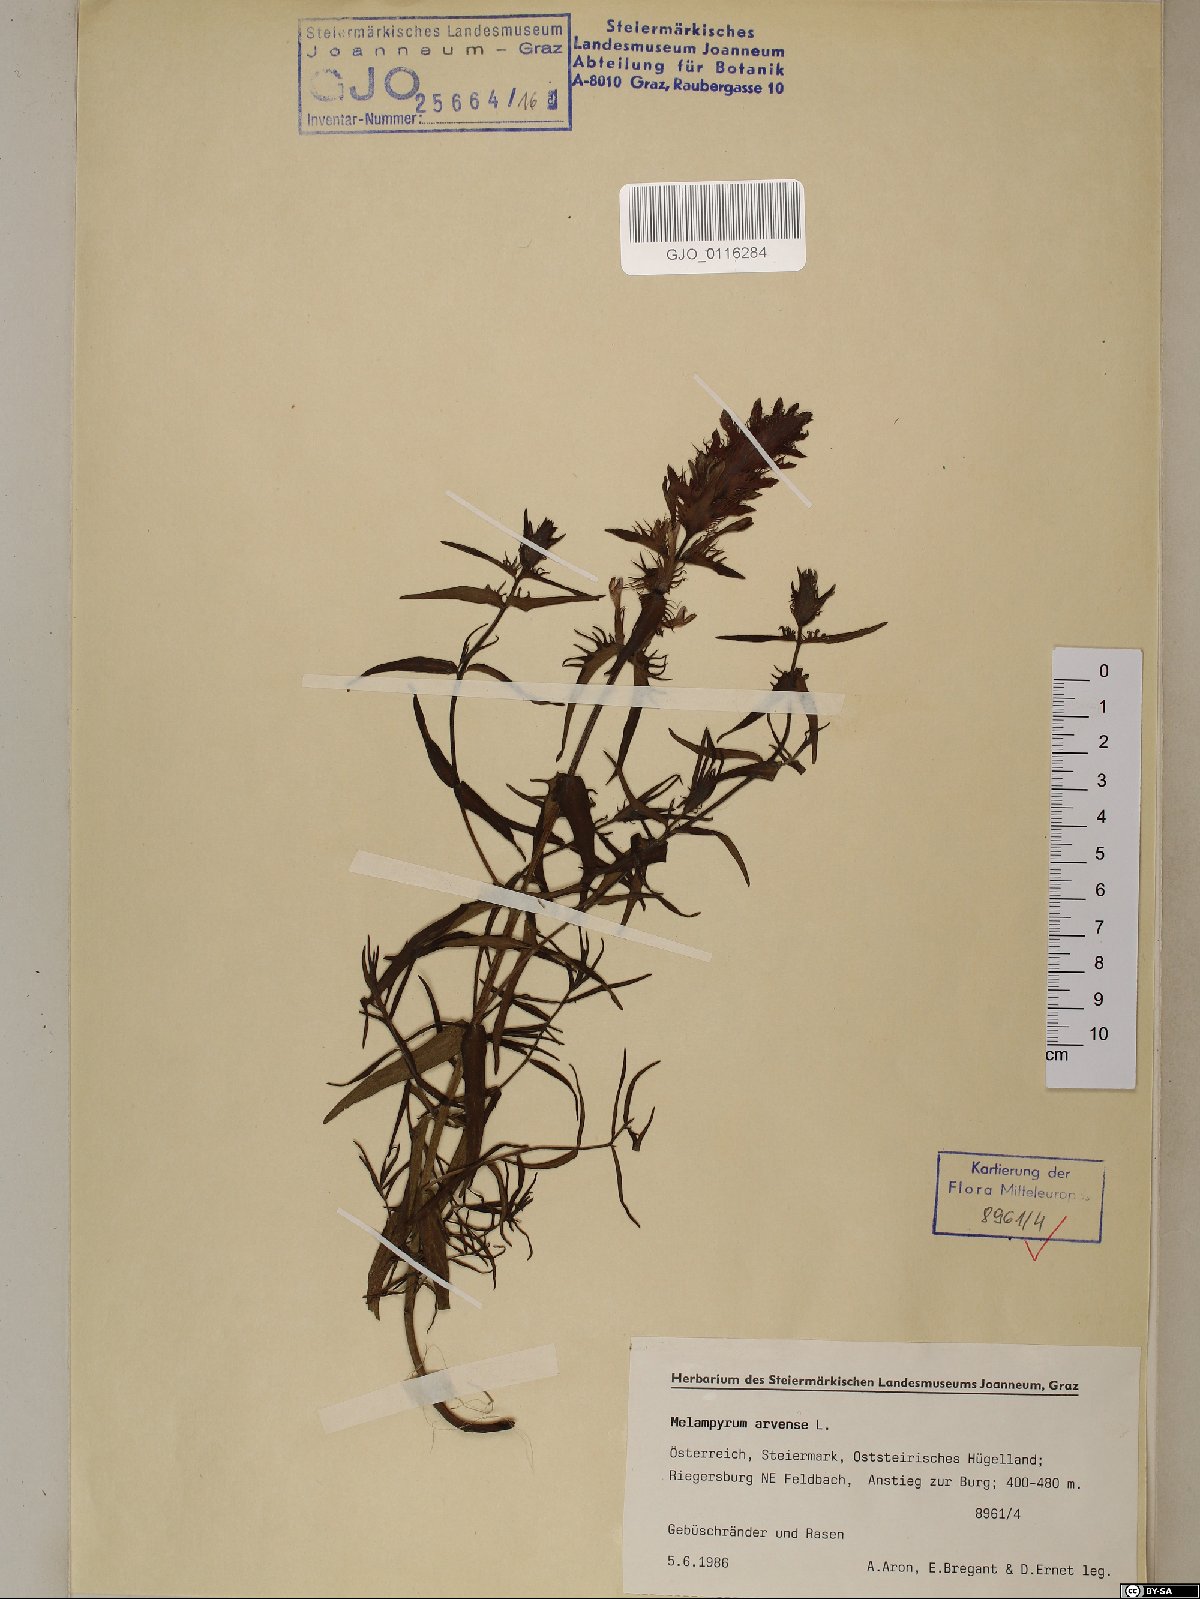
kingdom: Plantae
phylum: Tracheophyta
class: Magnoliopsida
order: Lamiales
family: Orobanchaceae
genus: Melampyrum
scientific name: Melampyrum arvense
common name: Field cow-wheat
